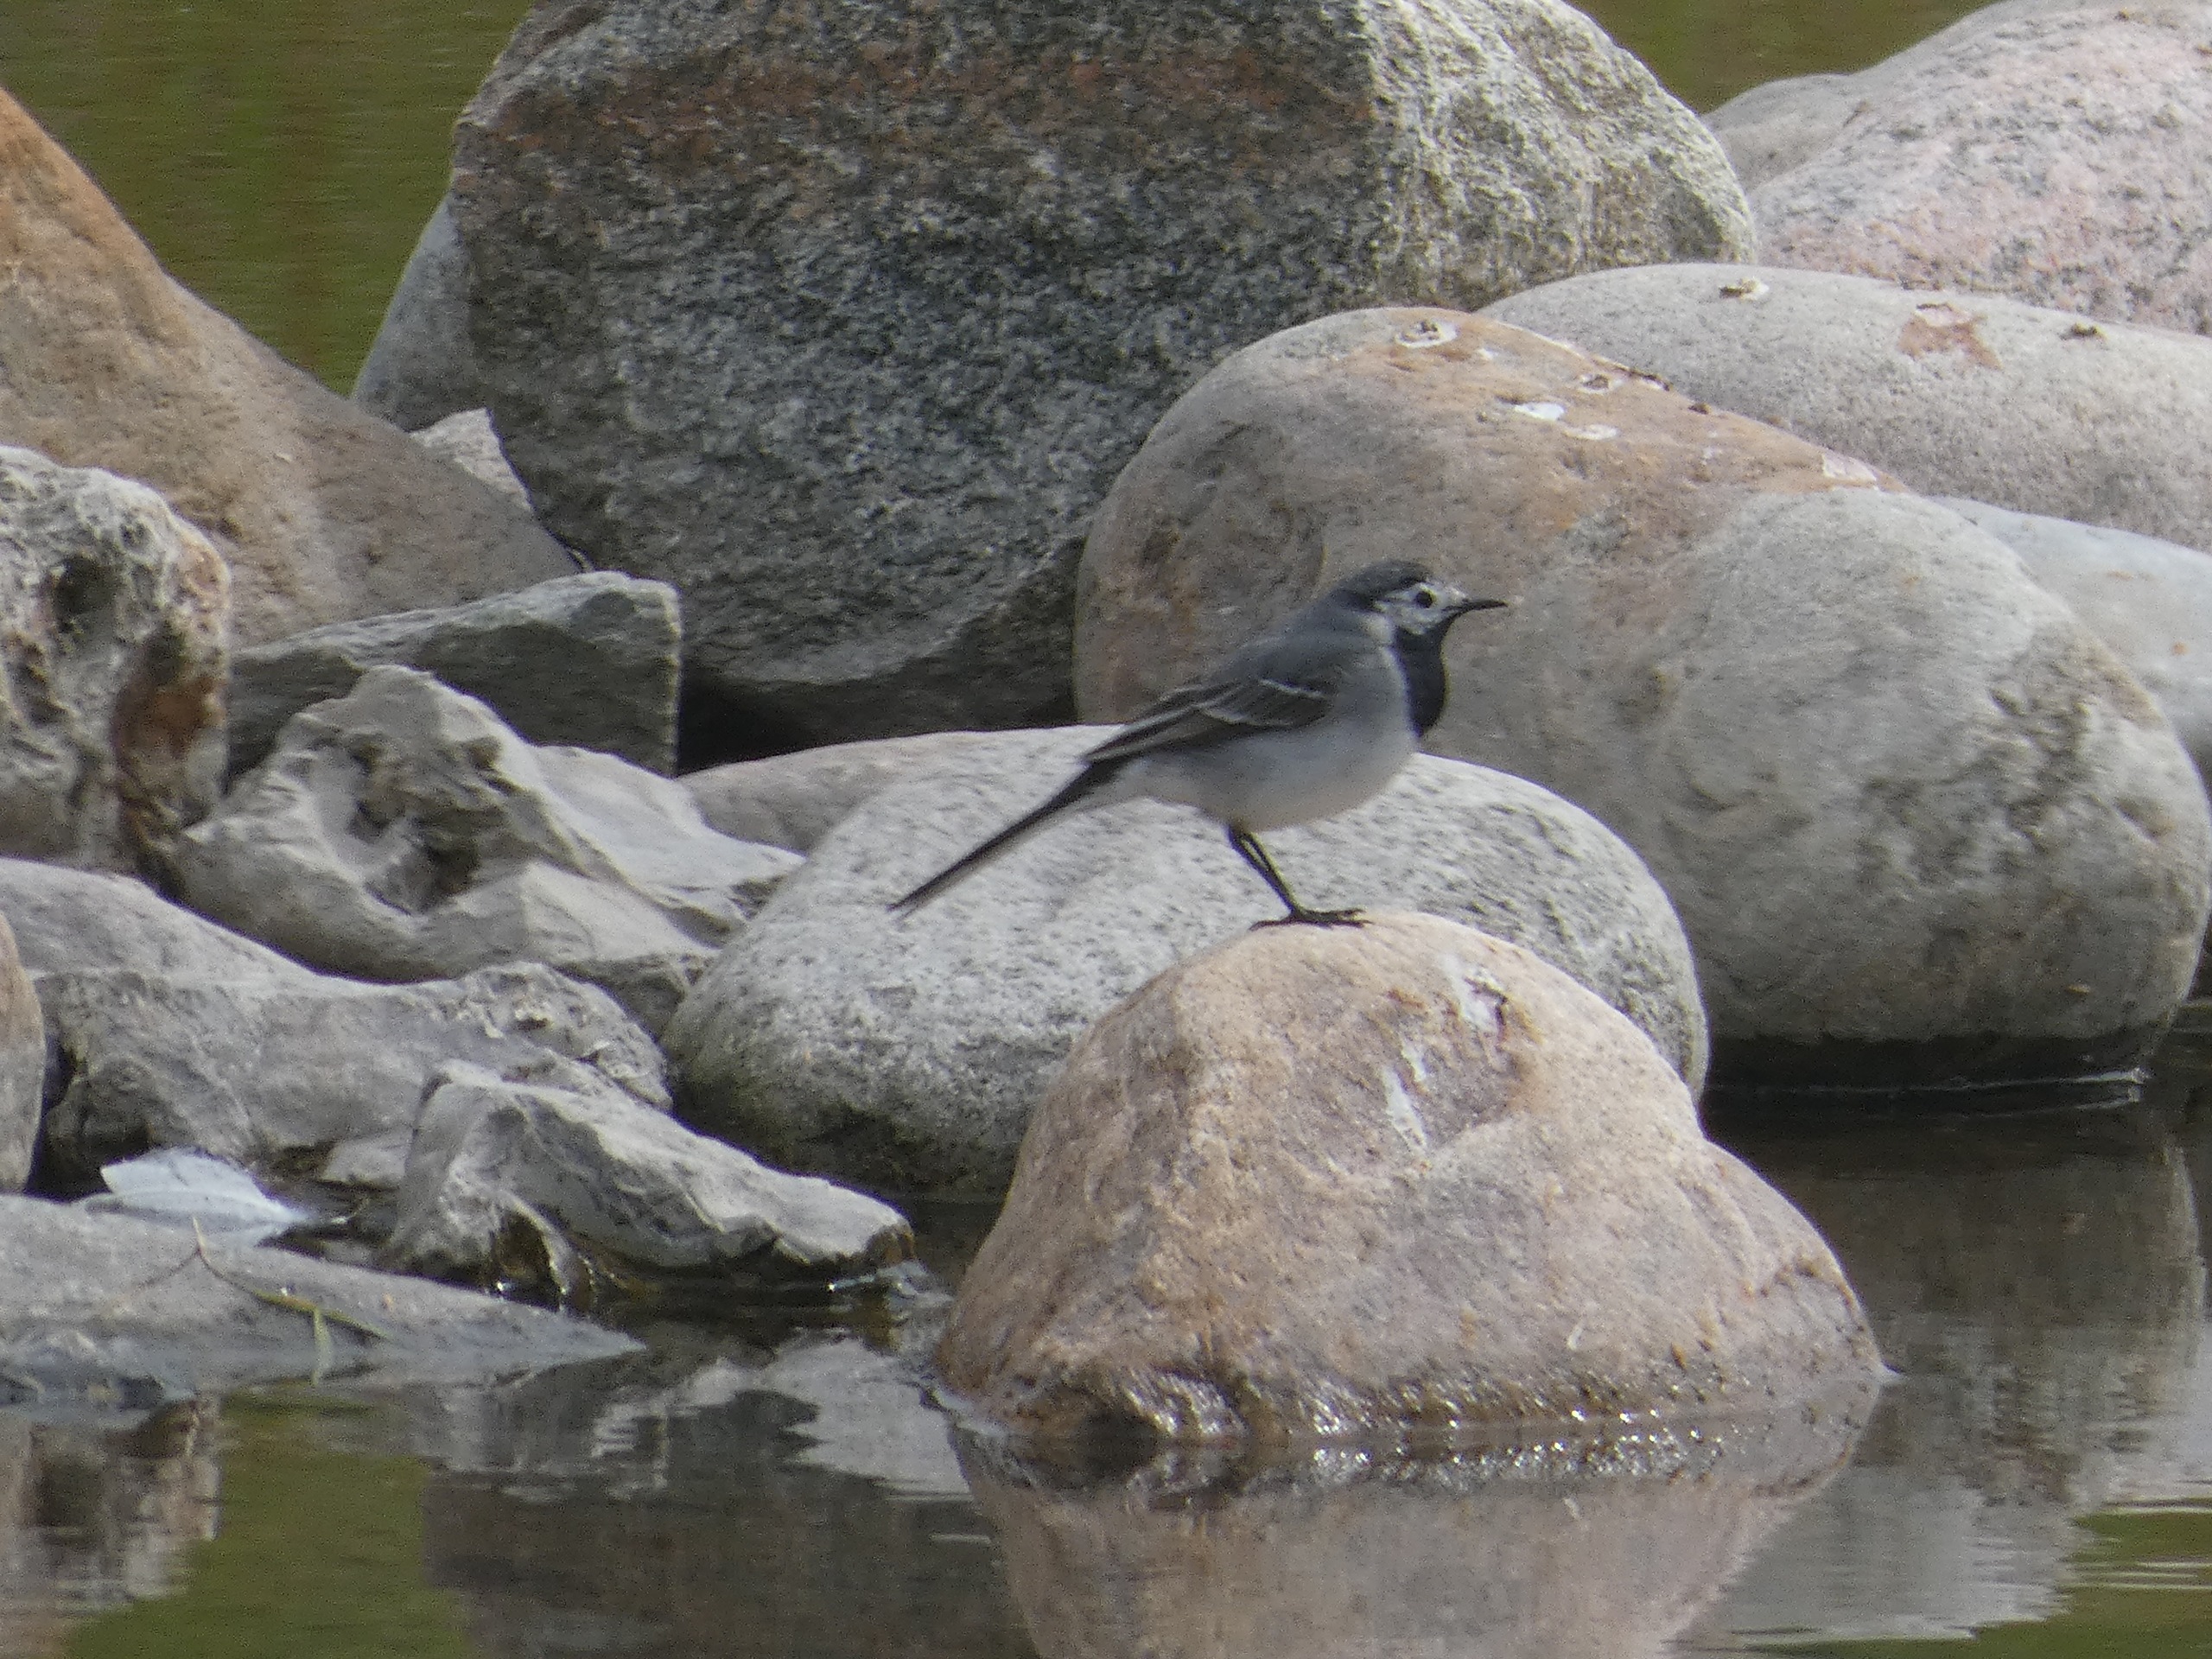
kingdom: Animalia
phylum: Chordata
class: Aves
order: Passeriformes
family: Motacillidae
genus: Motacilla
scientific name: Motacilla alba
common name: Hvid vipstjert
